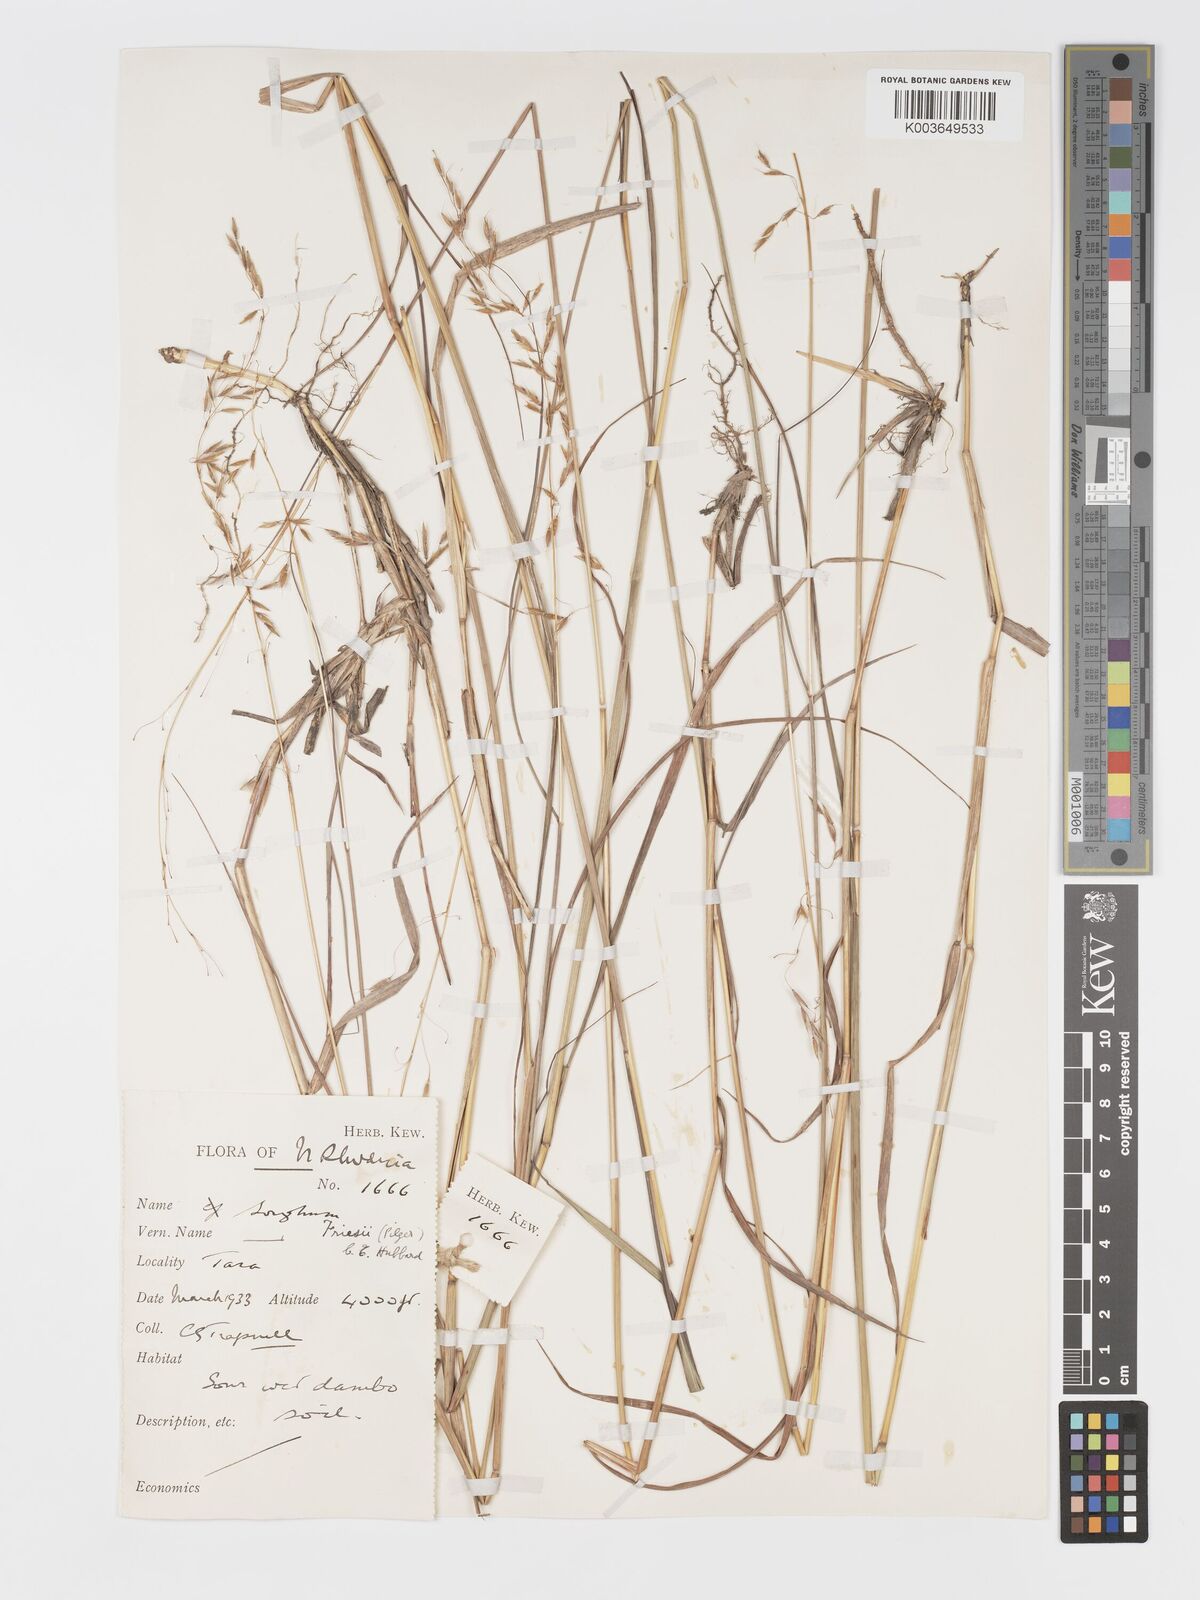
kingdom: Plantae
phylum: Tracheophyta
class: Liliopsida
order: Poales
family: Poaceae
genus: Sorghastrum
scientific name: Sorghastrum nudipes
